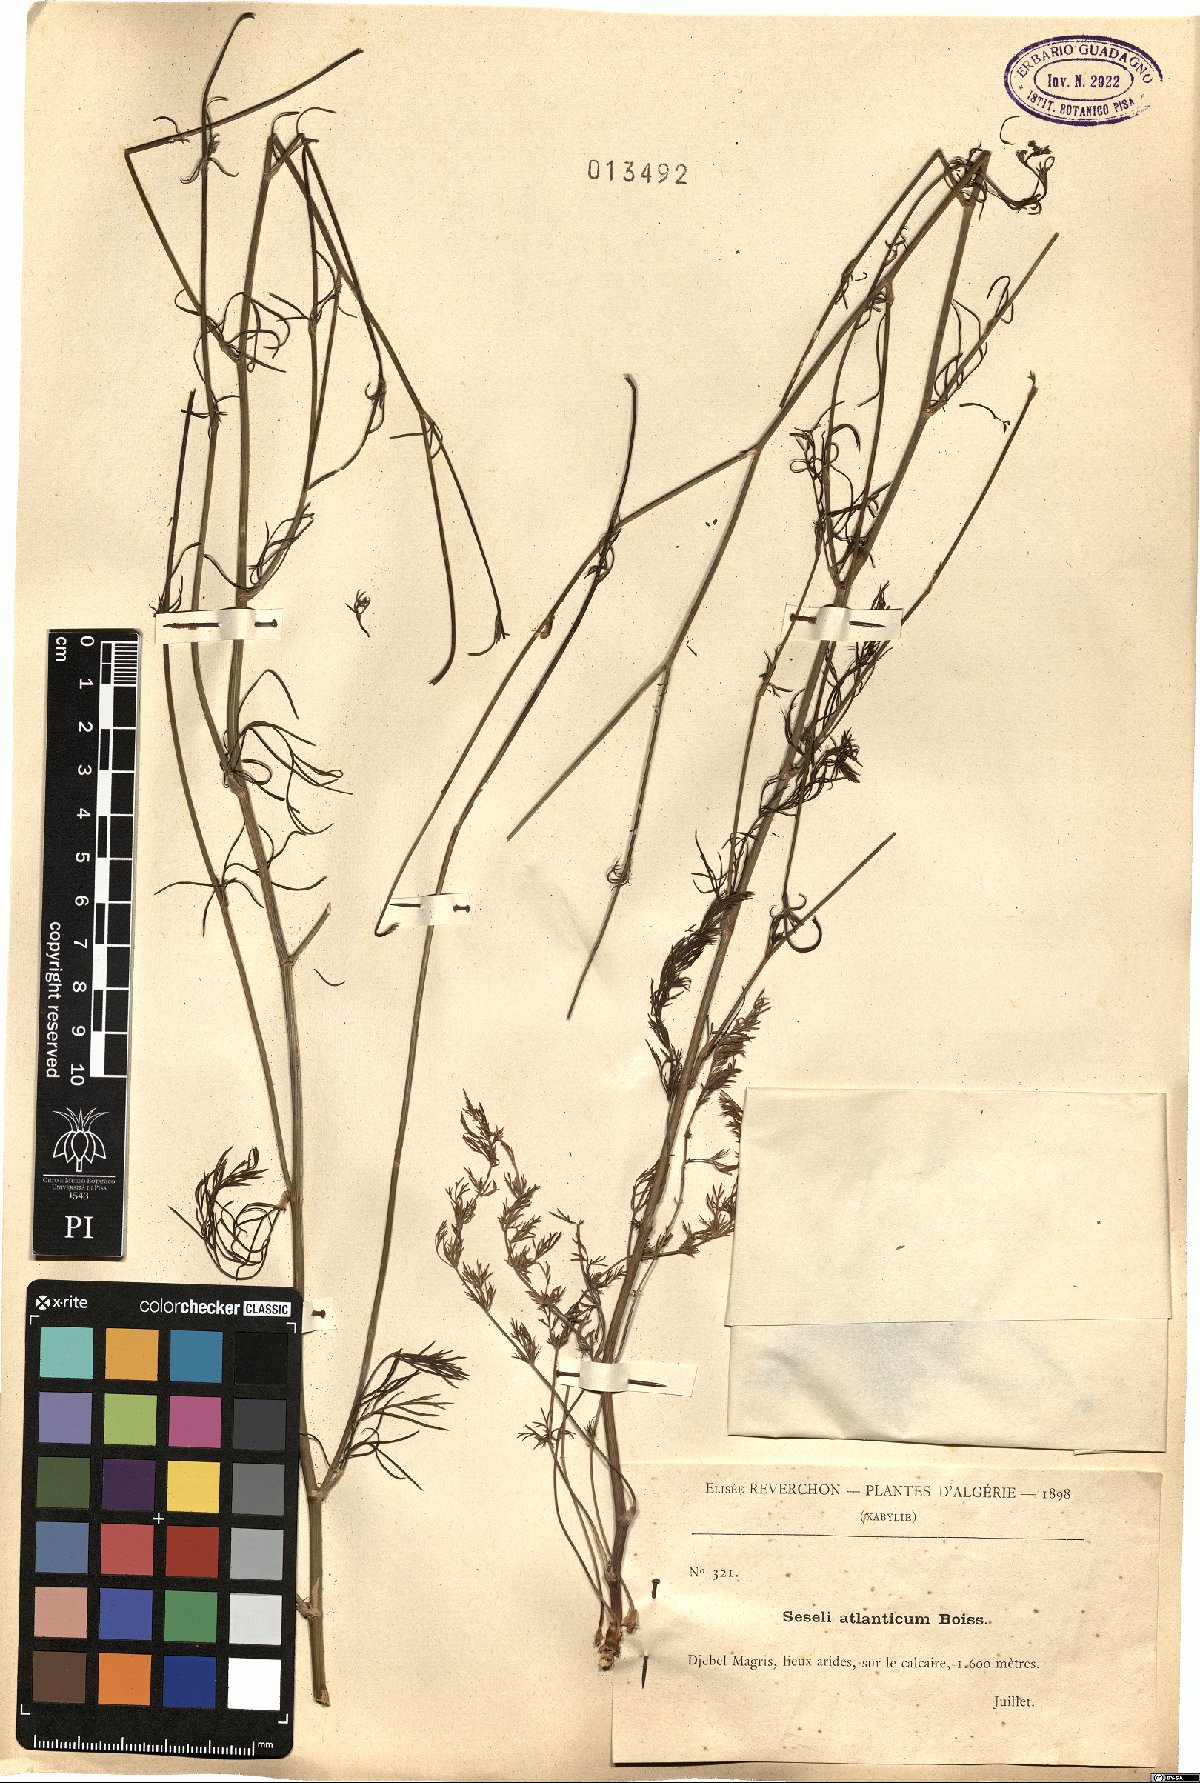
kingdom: Plantae
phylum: Tracheophyta
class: Magnoliopsida
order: Apiales
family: Apiaceae
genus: Seseli
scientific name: Seseli atlanticum
